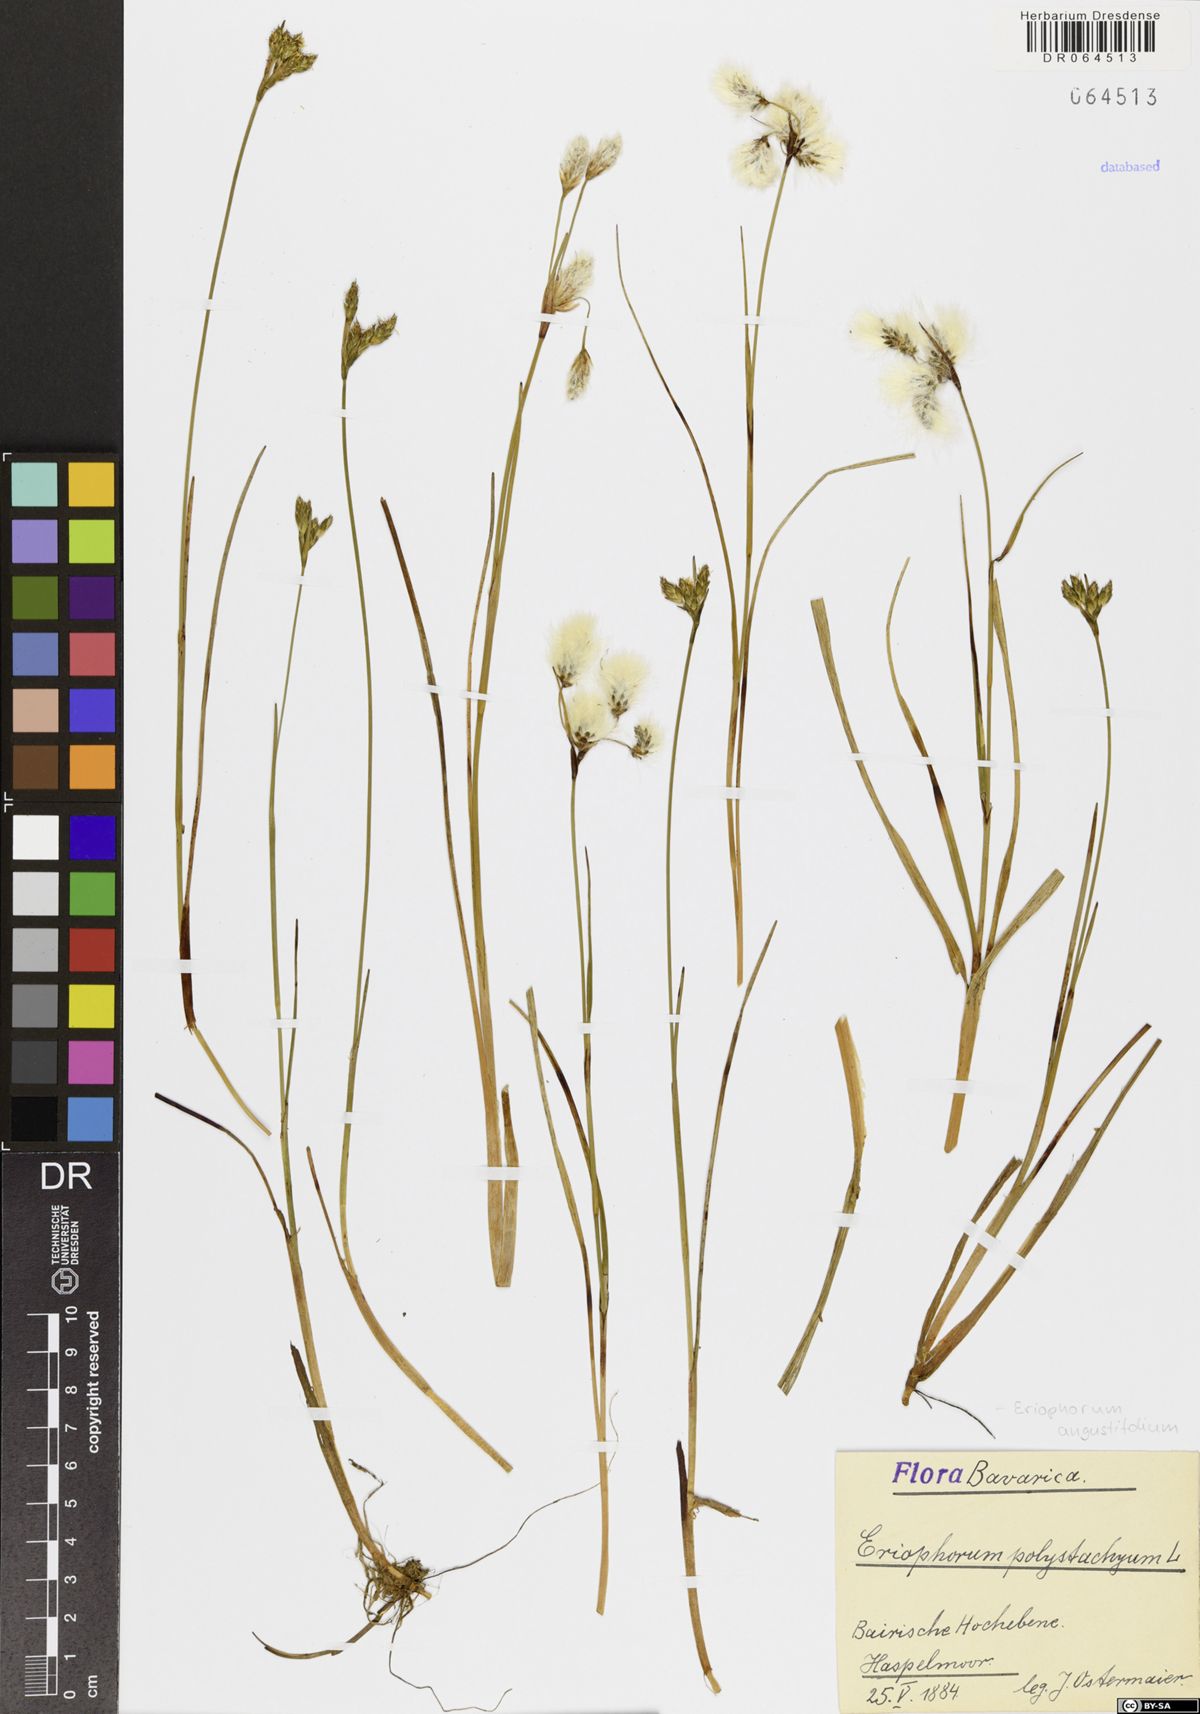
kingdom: Plantae
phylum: Tracheophyta
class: Liliopsida
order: Poales
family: Cyperaceae
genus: Eriophorum
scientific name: Eriophorum angustifolium
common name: Common cottongrass
